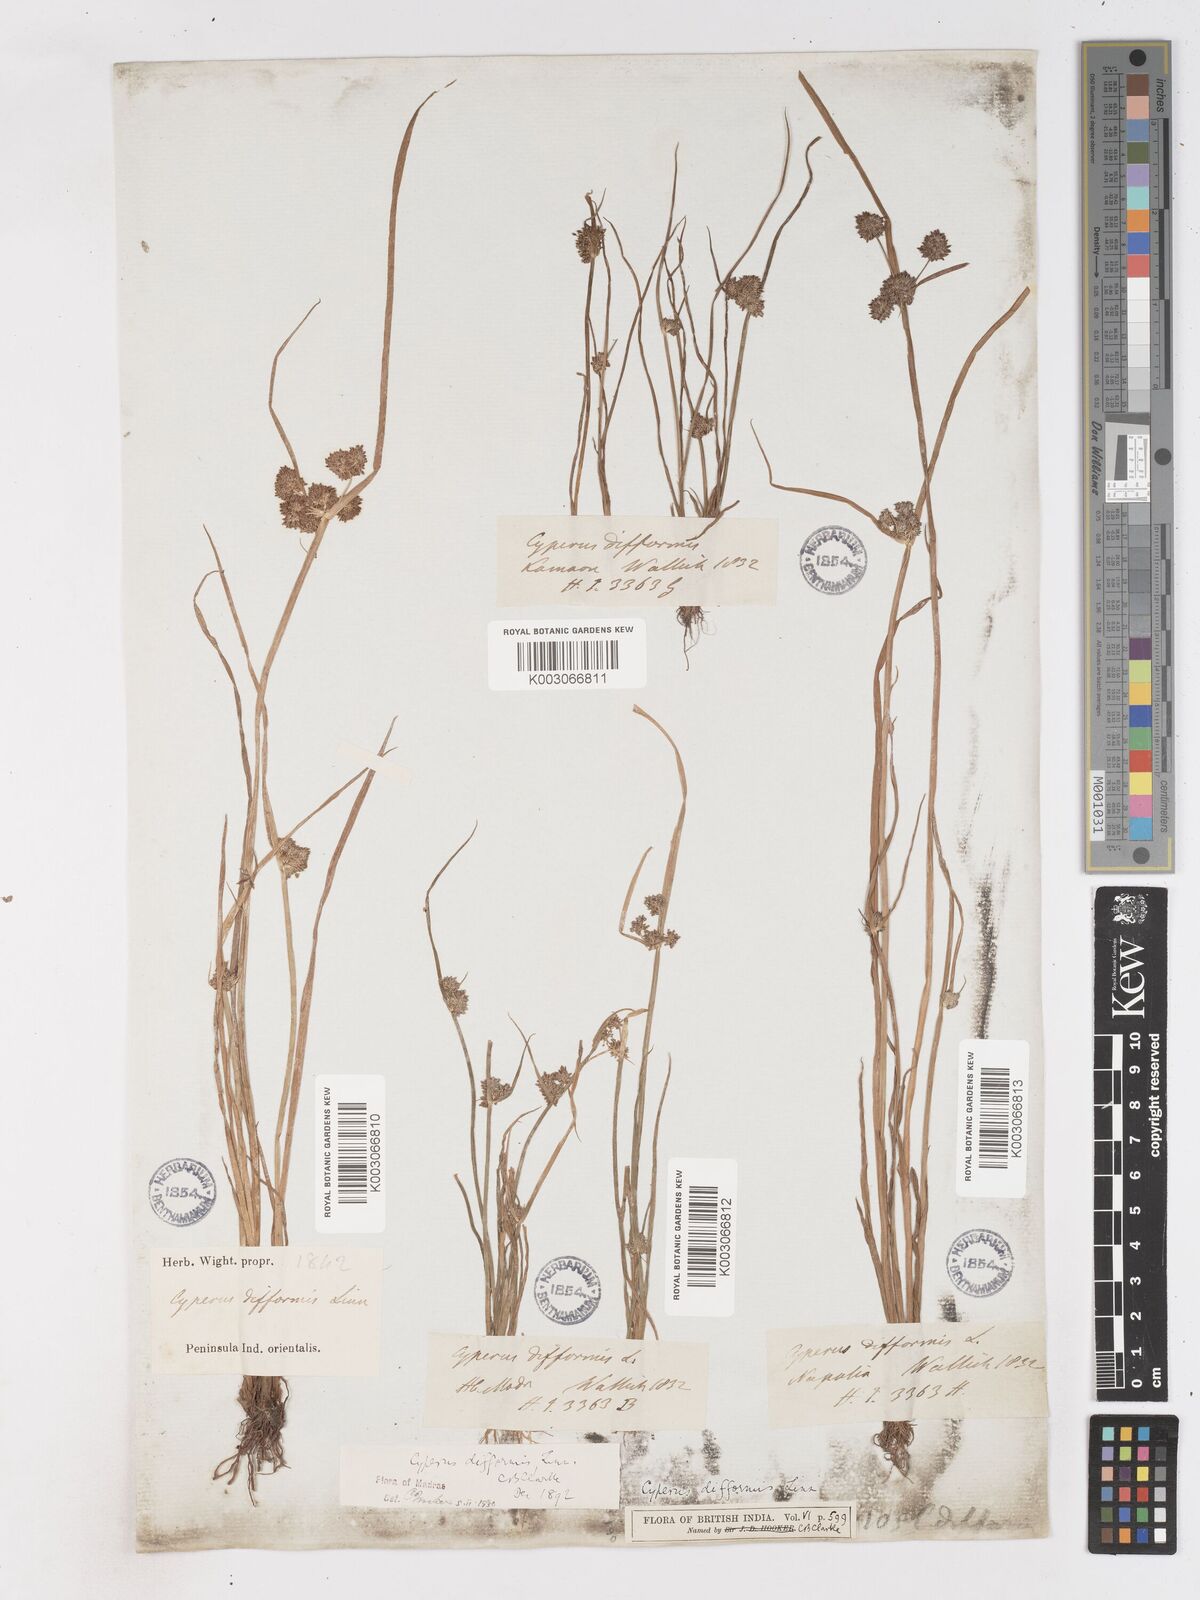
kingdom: Plantae
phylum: Tracheophyta
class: Liliopsida
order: Poales
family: Cyperaceae
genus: Cyperus
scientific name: Cyperus difformis
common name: Variable flatsedge
